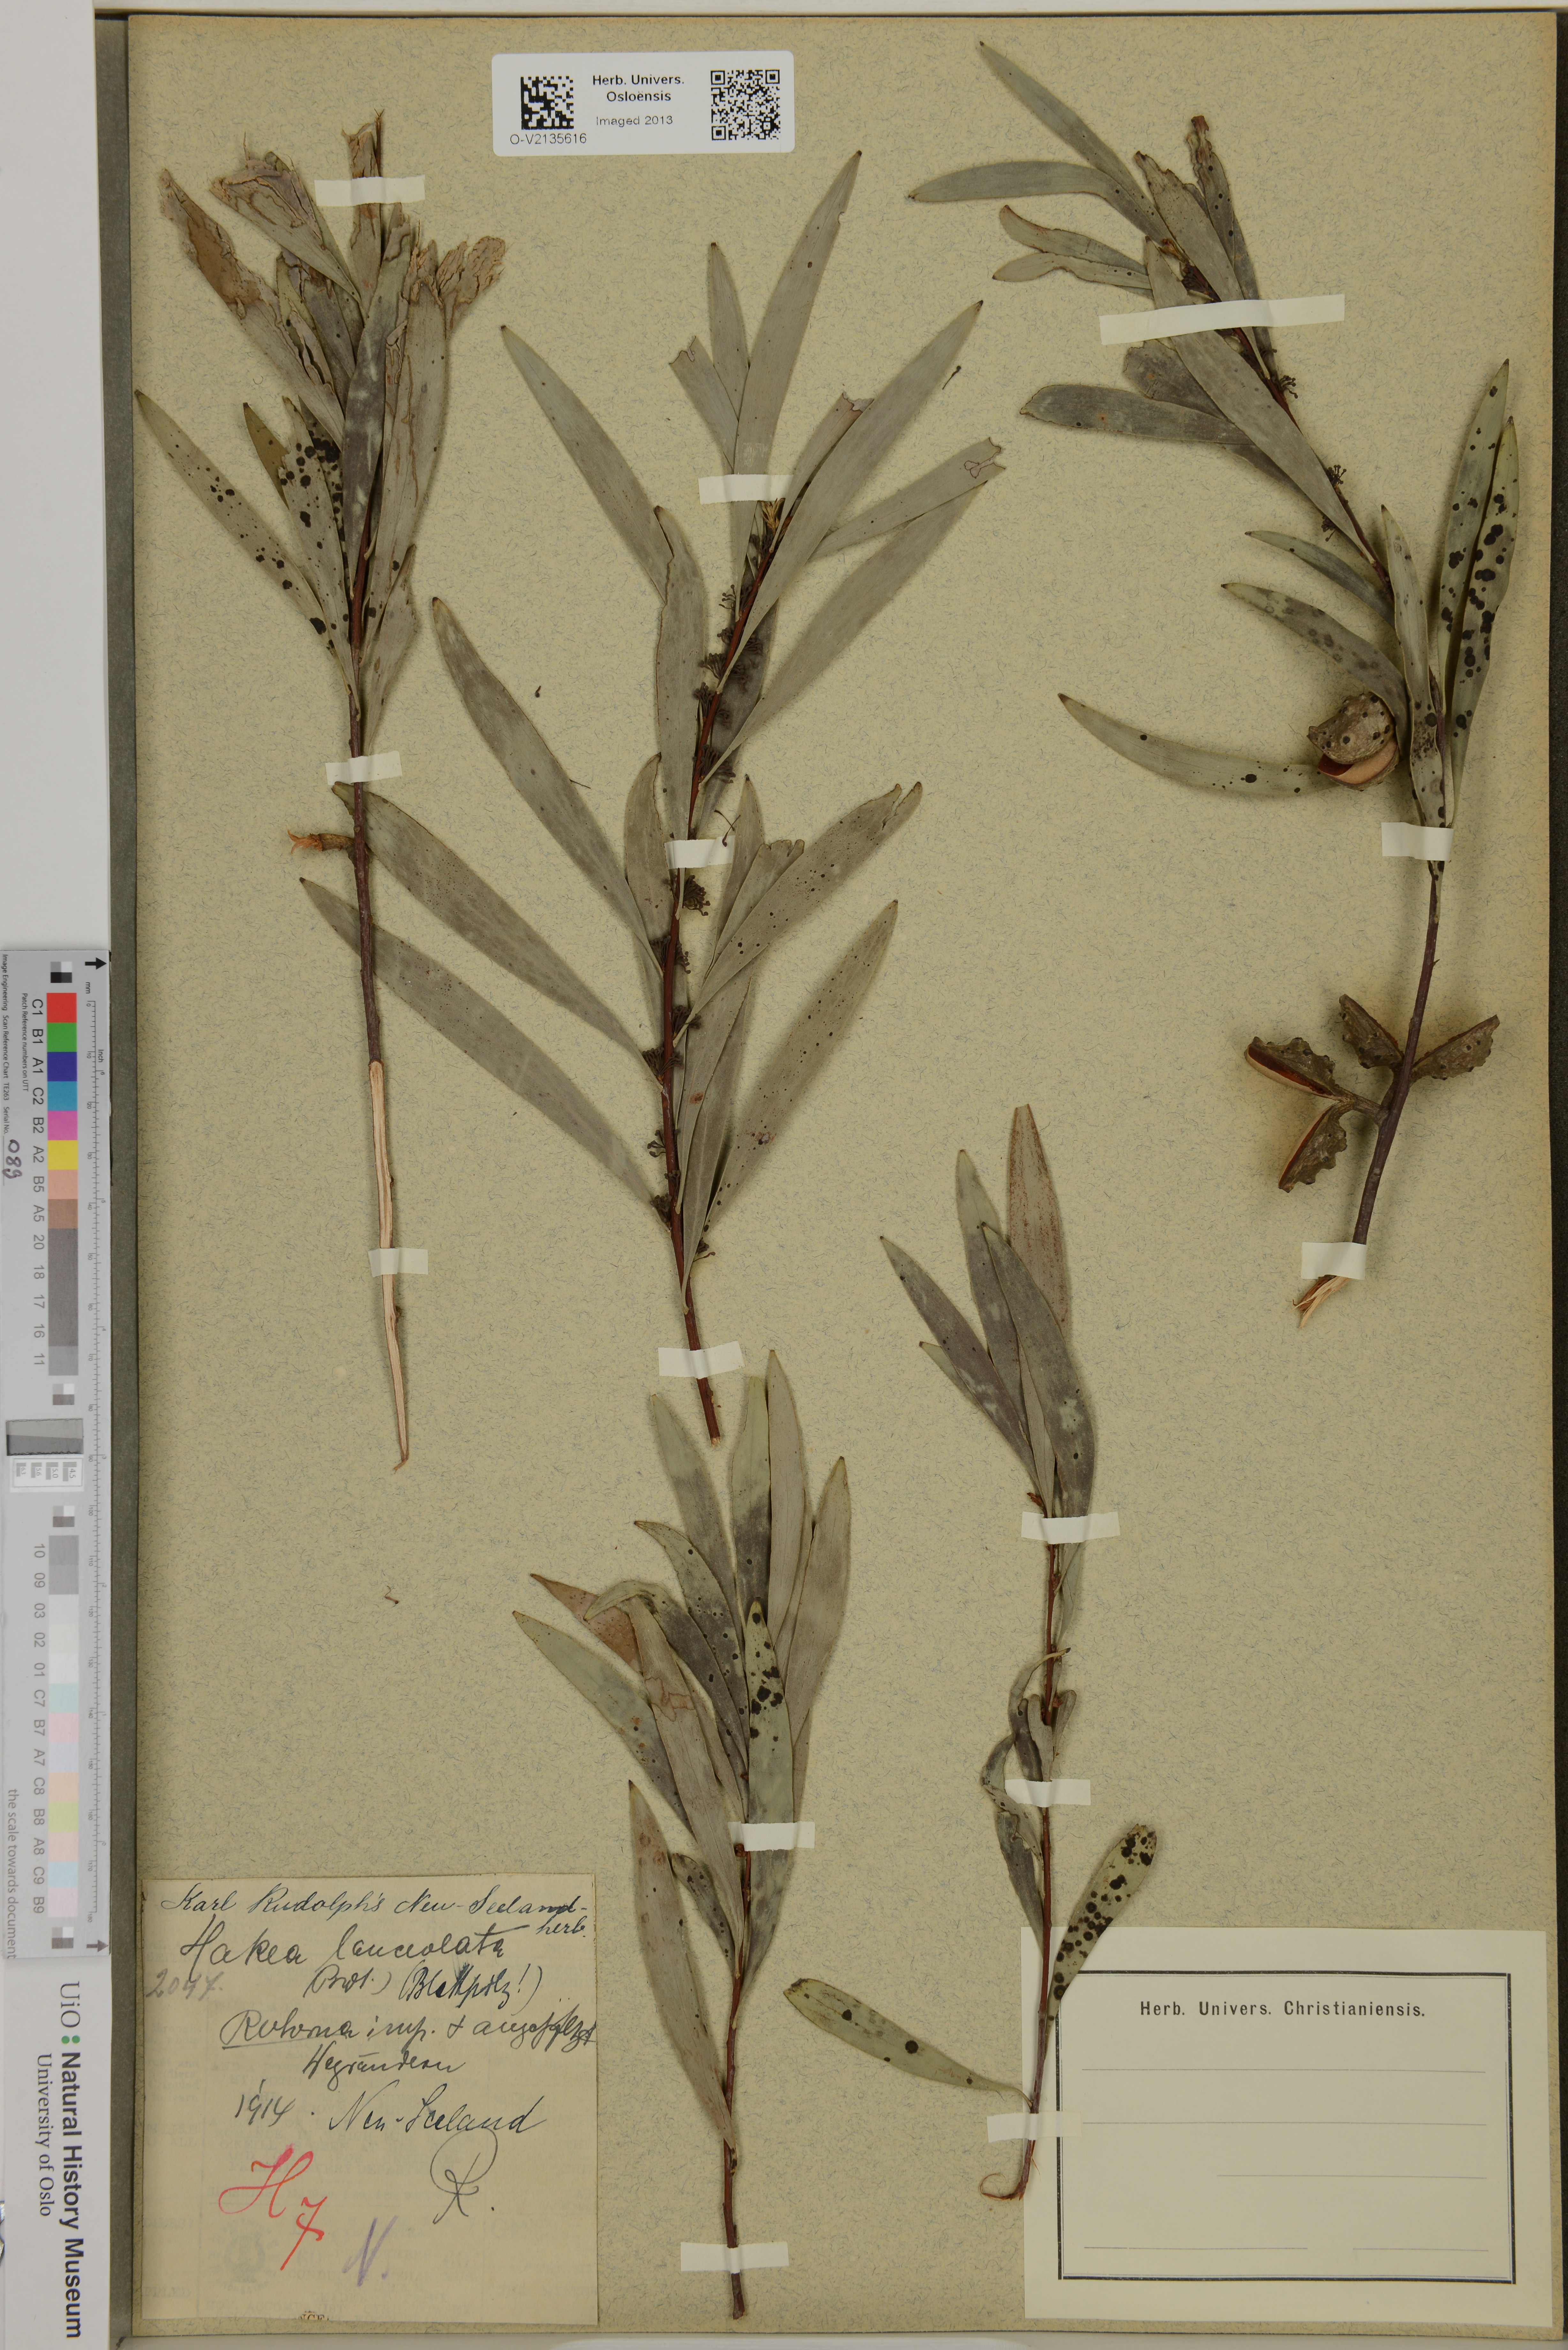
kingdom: Plantae
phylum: Tracheophyta
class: Magnoliopsida
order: Proteales
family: Proteaceae
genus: Hakea
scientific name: Hakea
